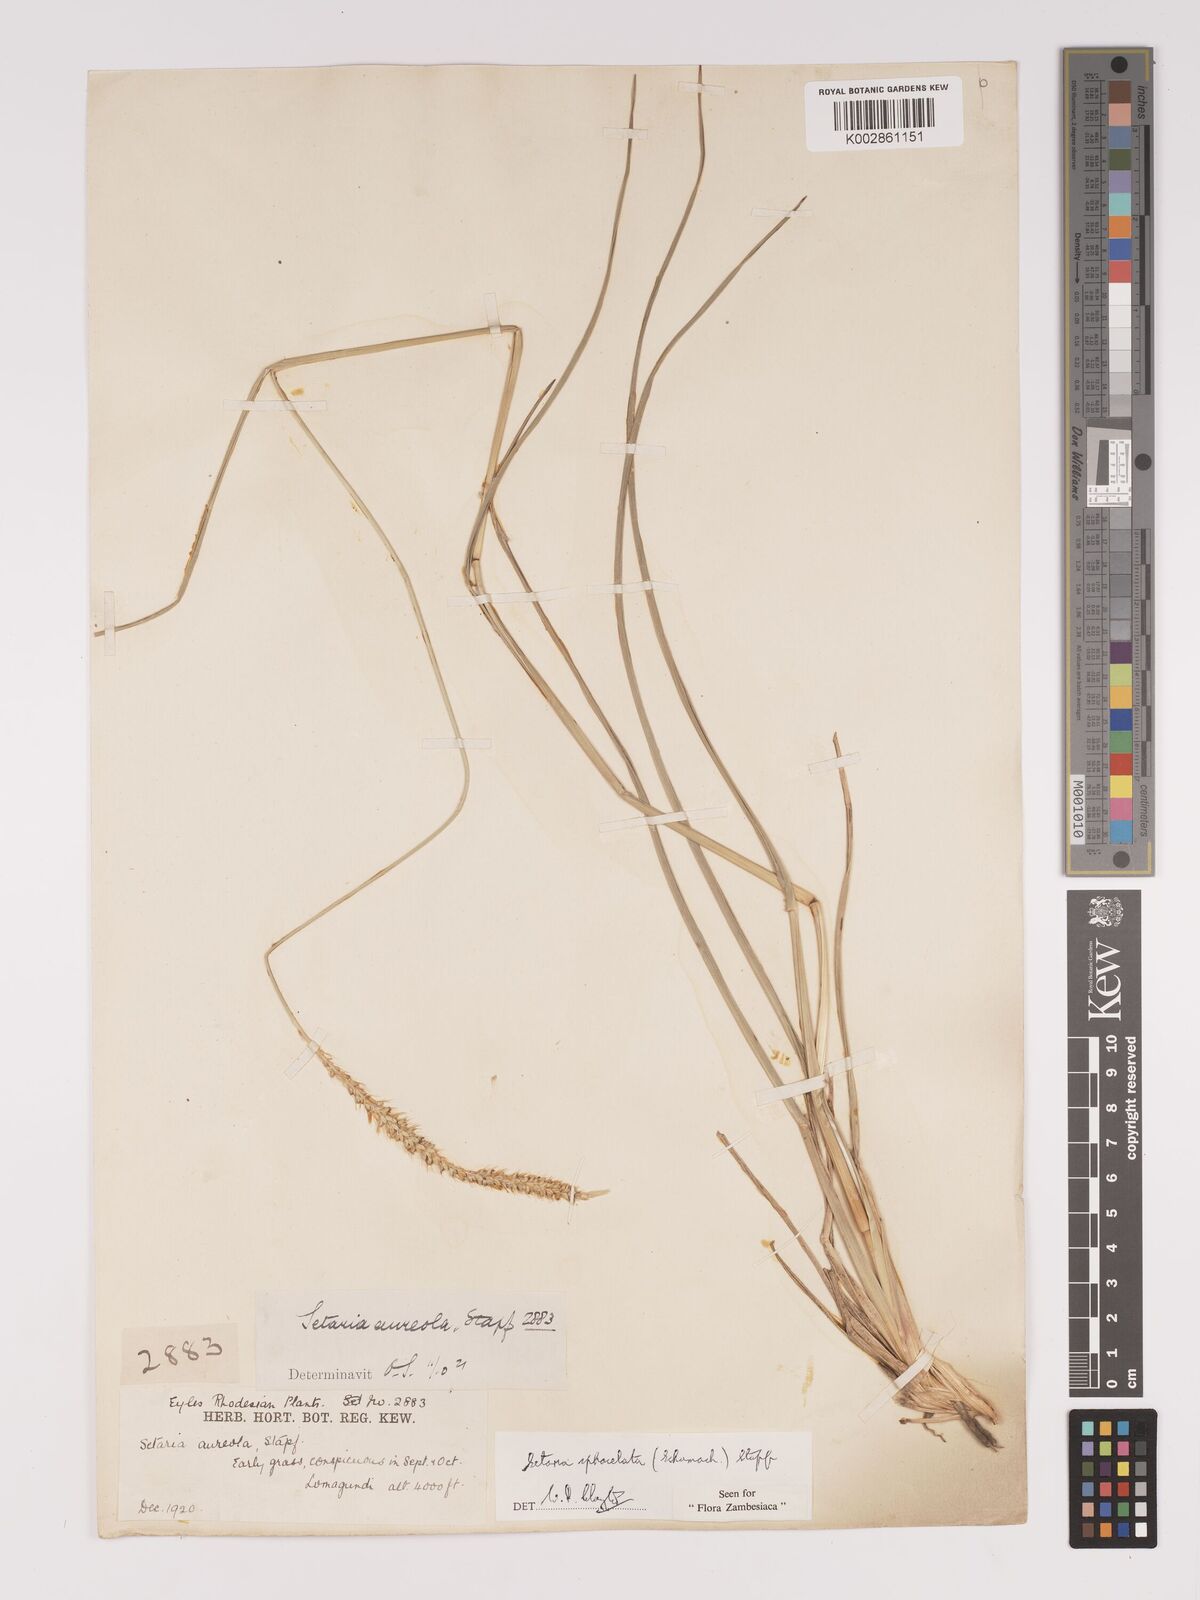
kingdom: Plantae
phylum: Tracheophyta
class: Liliopsida
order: Poales
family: Poaceae
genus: Setaria
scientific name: Setaria sphacelata
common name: African bristlegrass
